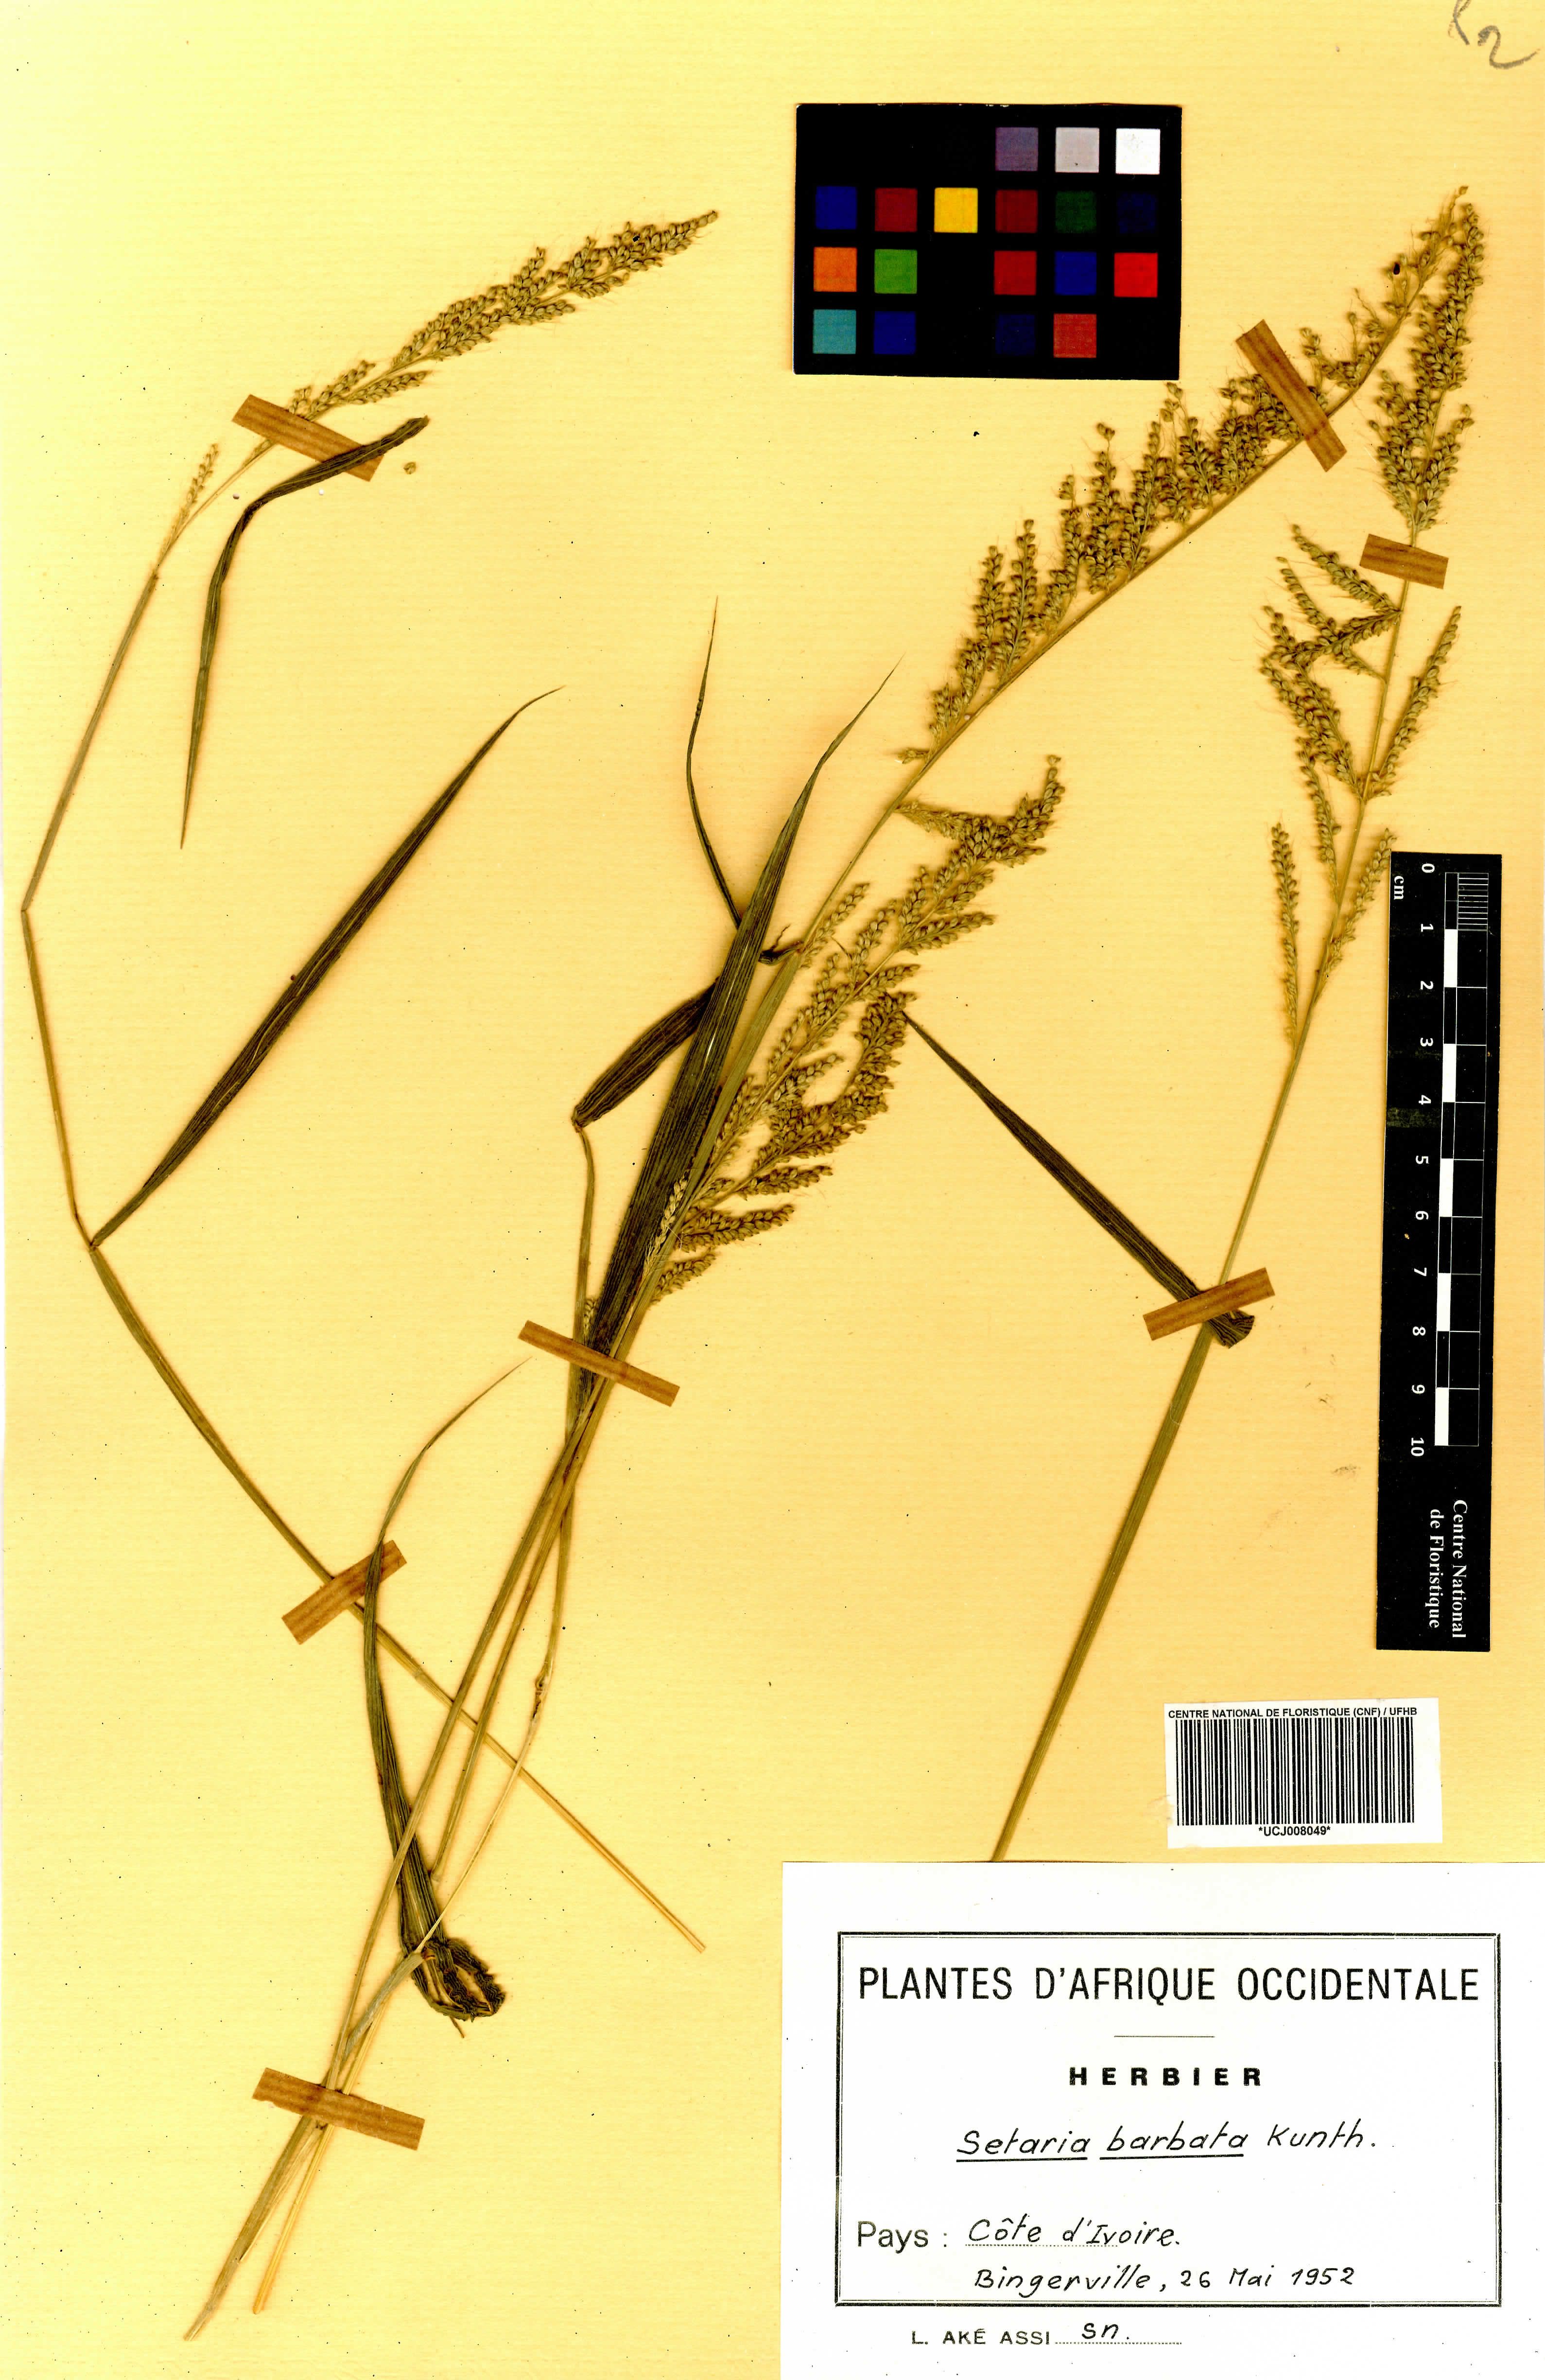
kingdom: Plantae
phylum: Tracheophyta
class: Liliopsida
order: Poales
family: Poaceae
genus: Setaria
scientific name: Setaria barbata
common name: East indian bristlegrass
